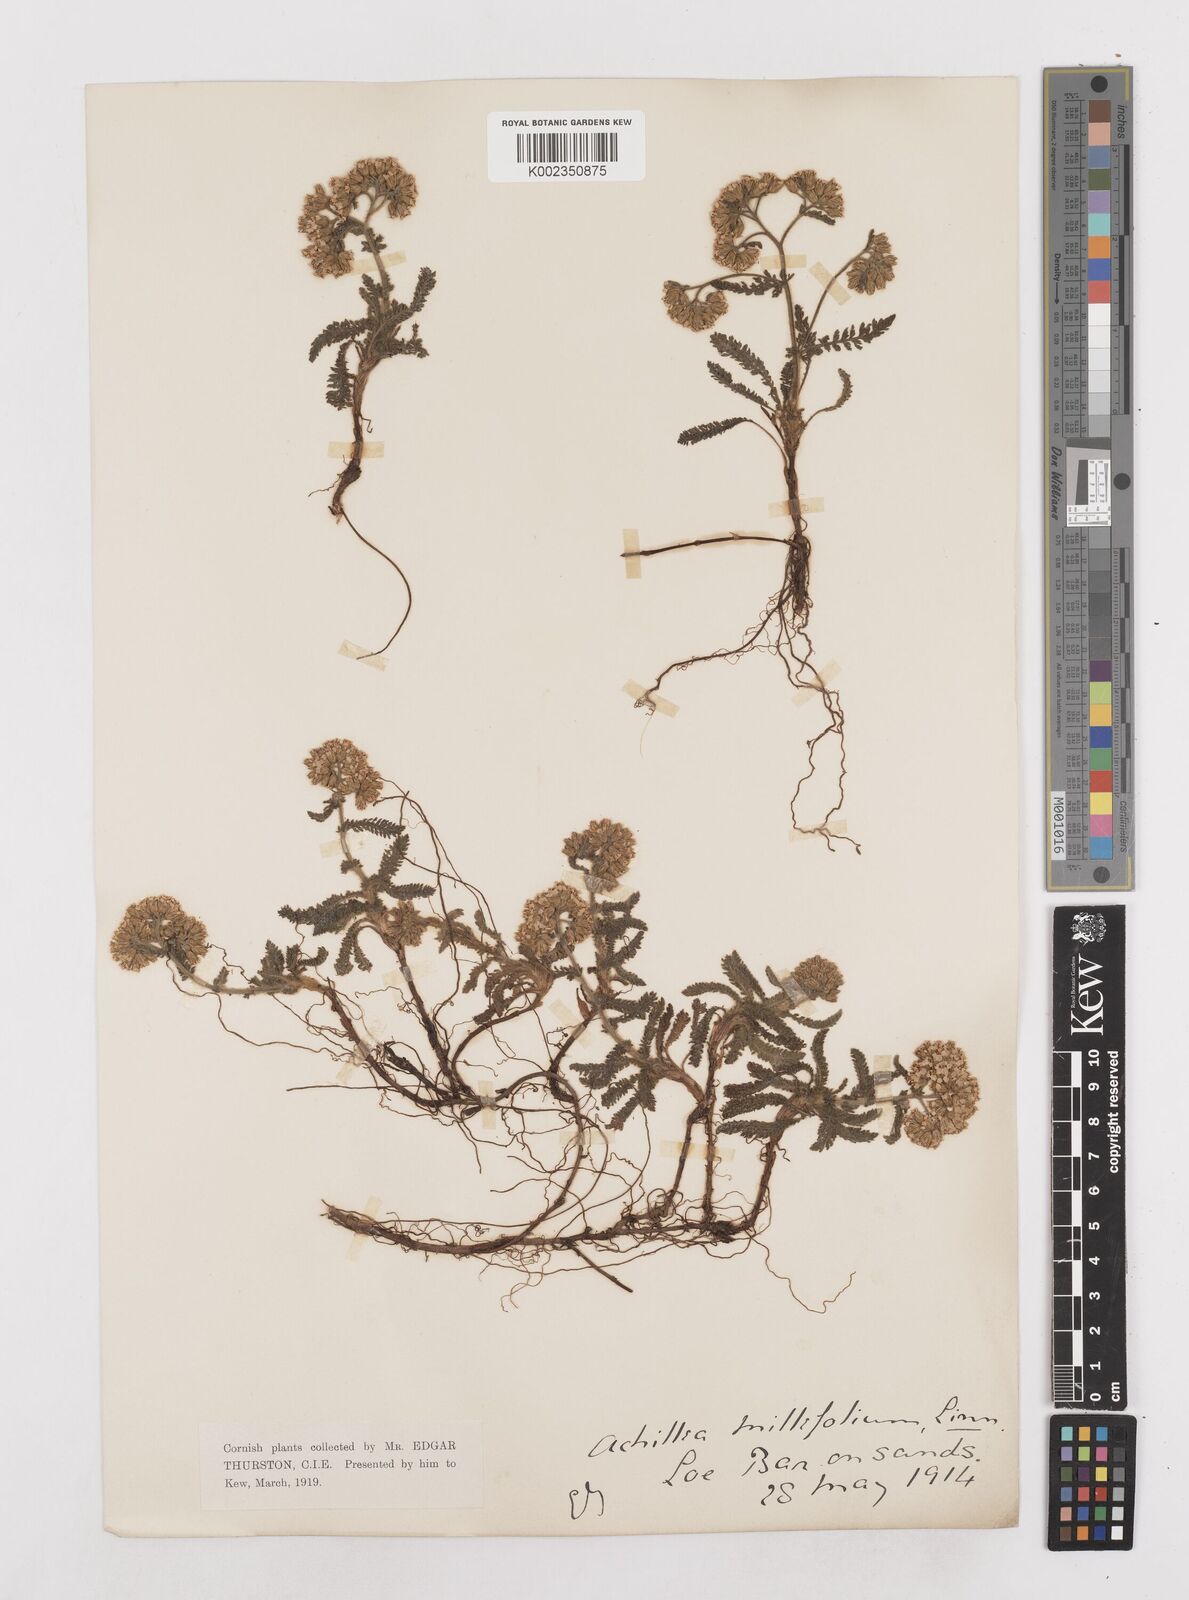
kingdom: Plantae
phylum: Tracheophyta
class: Magnoliopsida
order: Asterales
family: Asteraceae
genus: Achillea
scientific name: Achillea millefolium
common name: Yarrow
